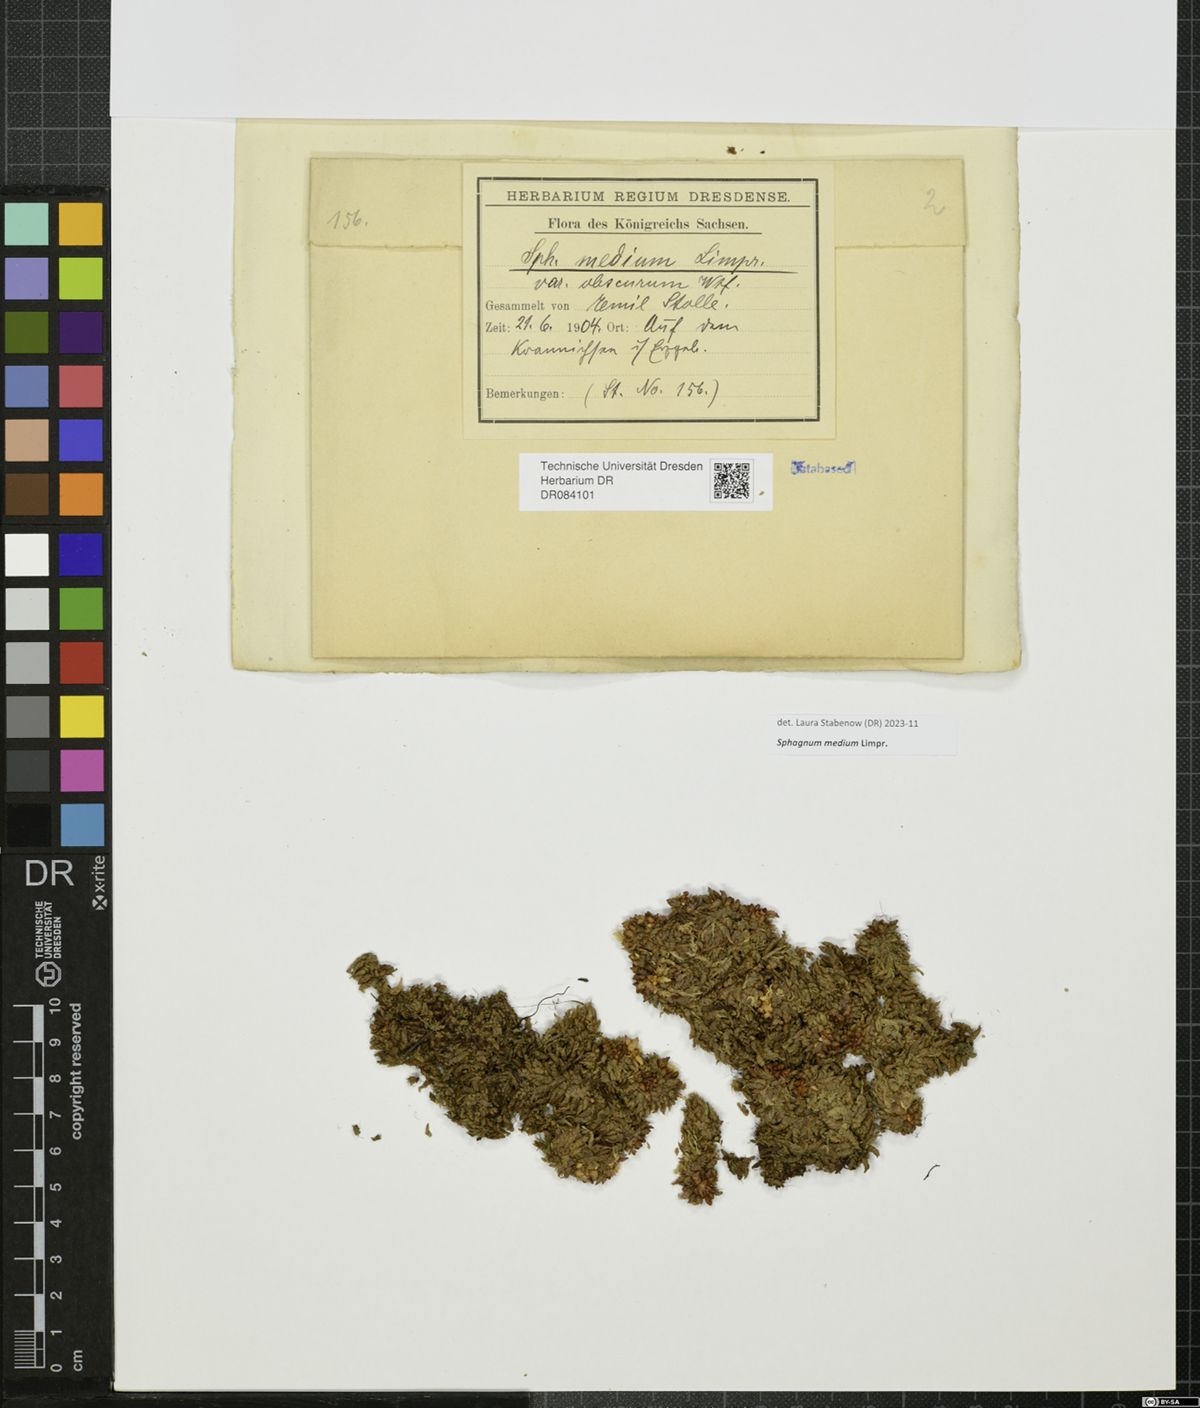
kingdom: Plantae
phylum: Bryophyta
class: Sphagnopsida
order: Sphagnales
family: Sphagnaceae
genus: Sphagnum
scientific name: Sphagnum medium
